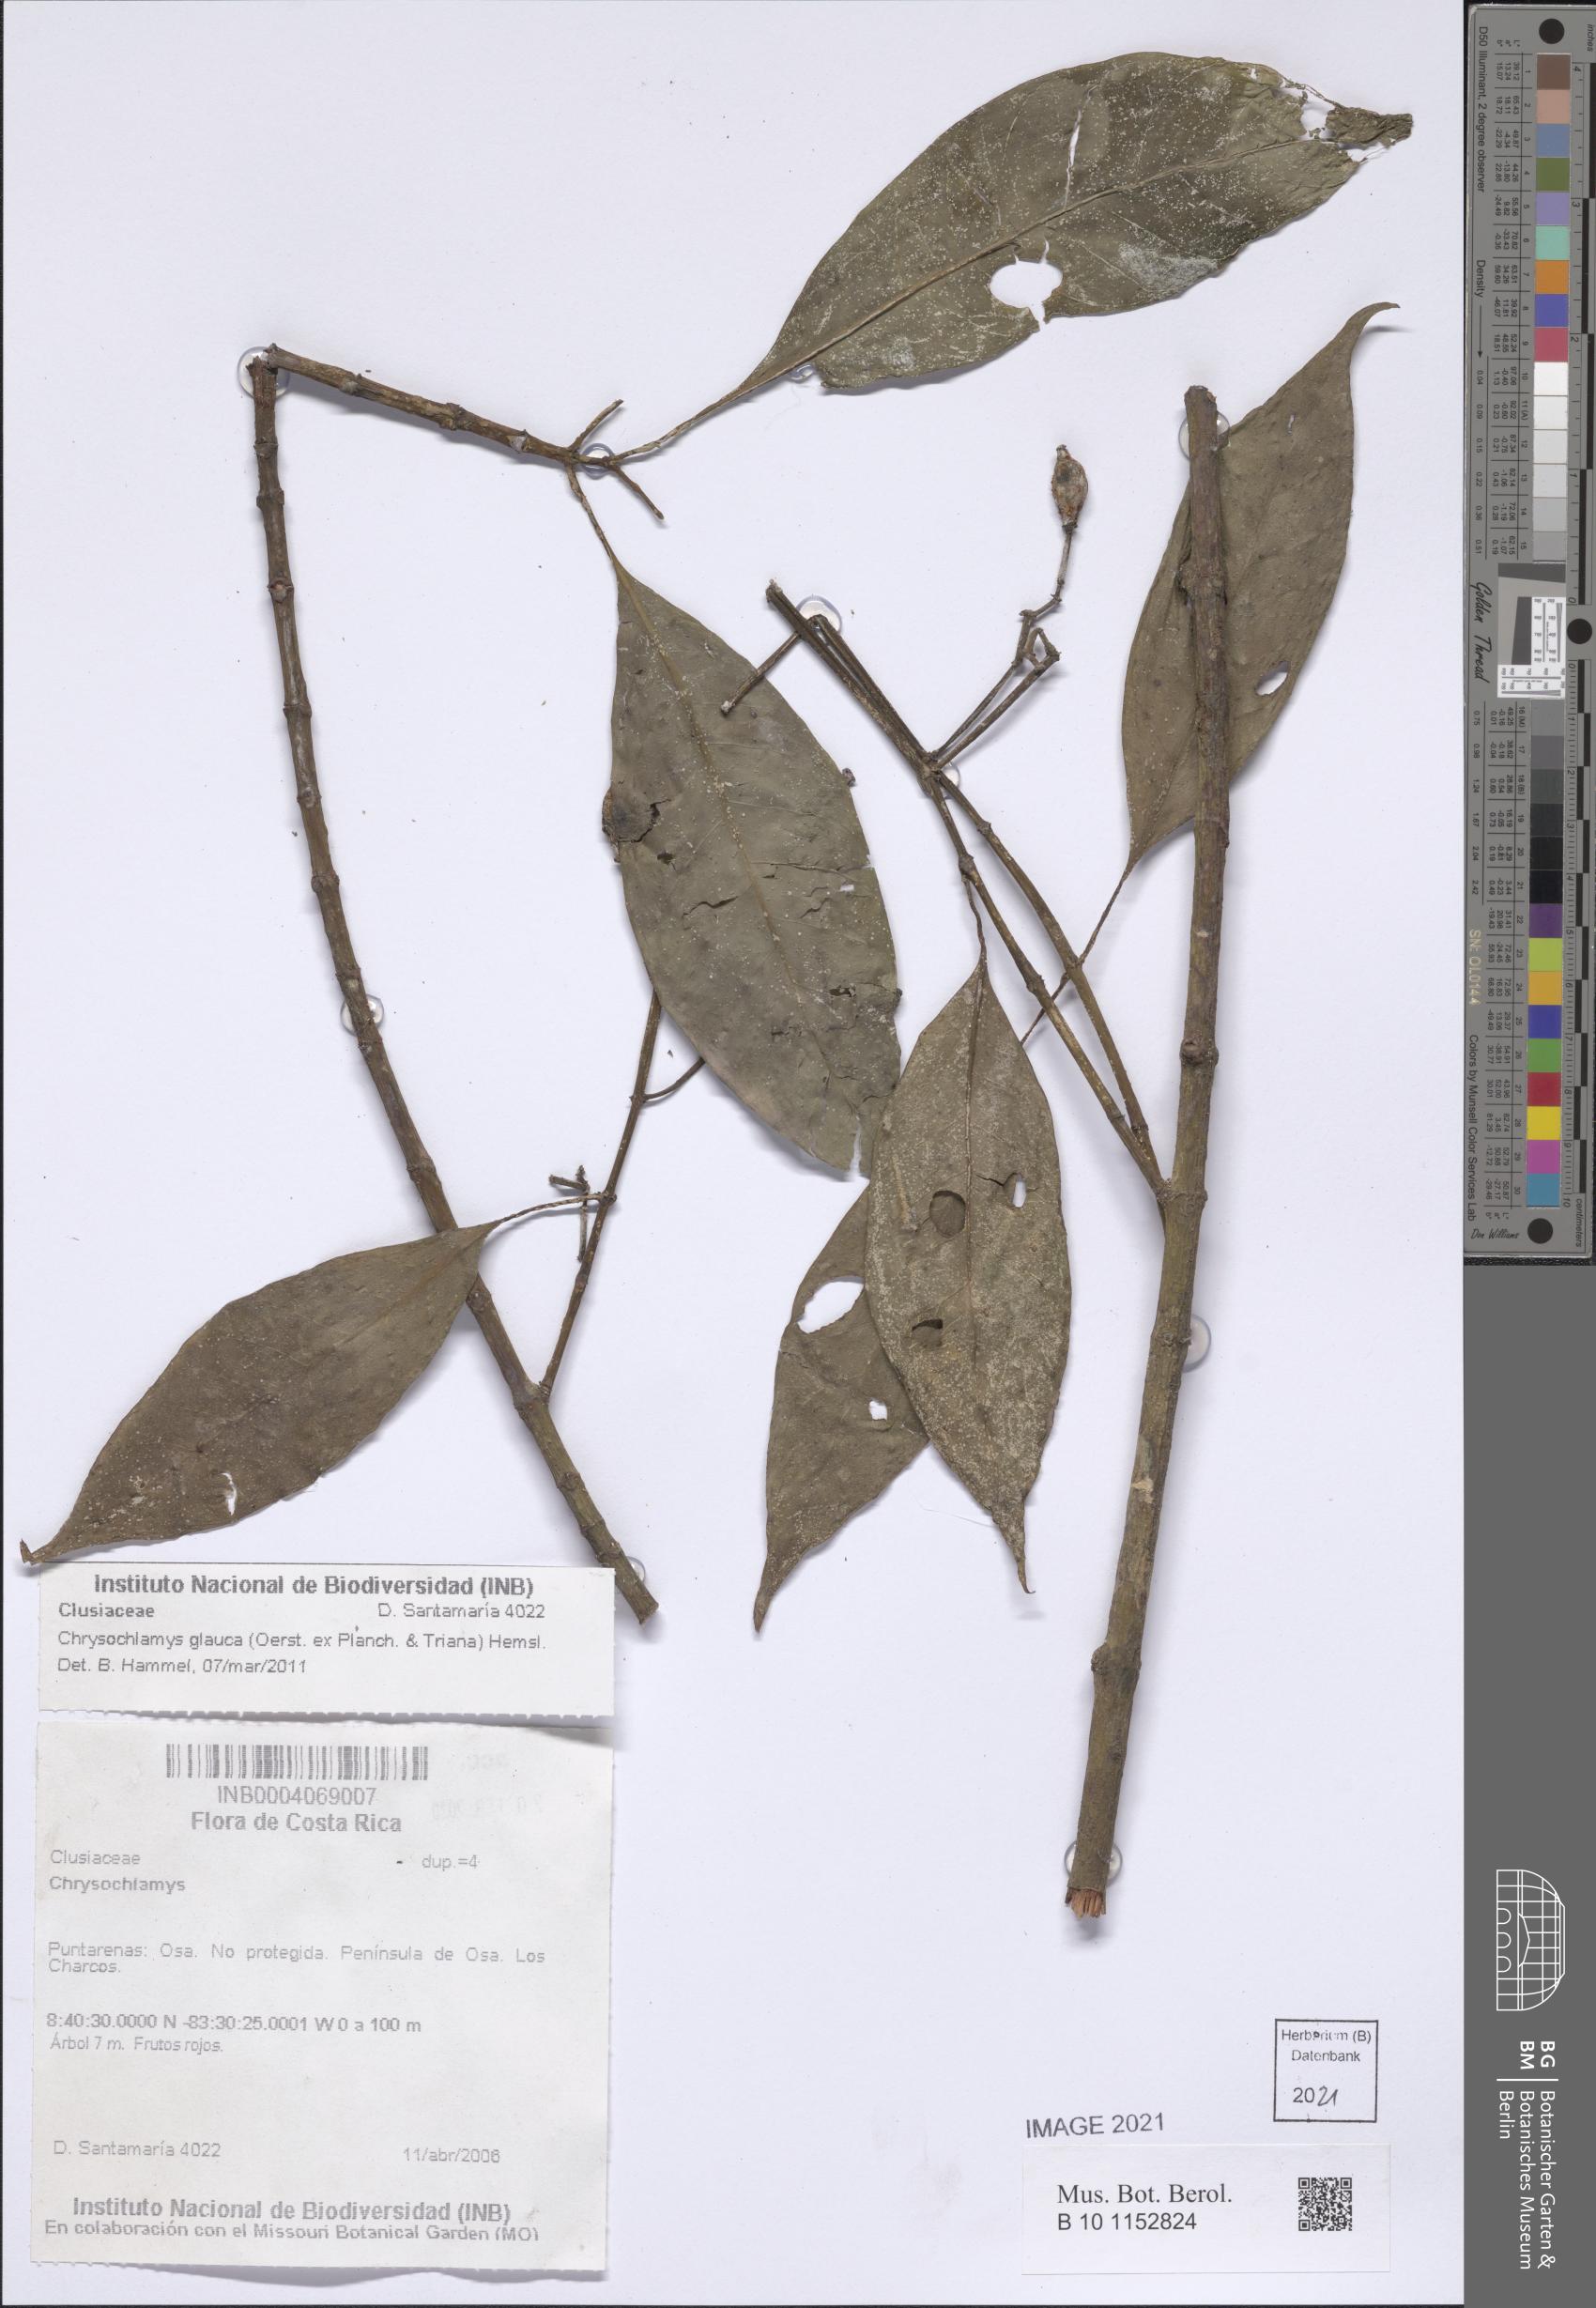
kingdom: Plantae
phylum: Tracheophyta
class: Magnoliopsida
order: Malpighiales
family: Clusiaceae
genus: Chrysochlamys
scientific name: Chrysochlamys glauca
